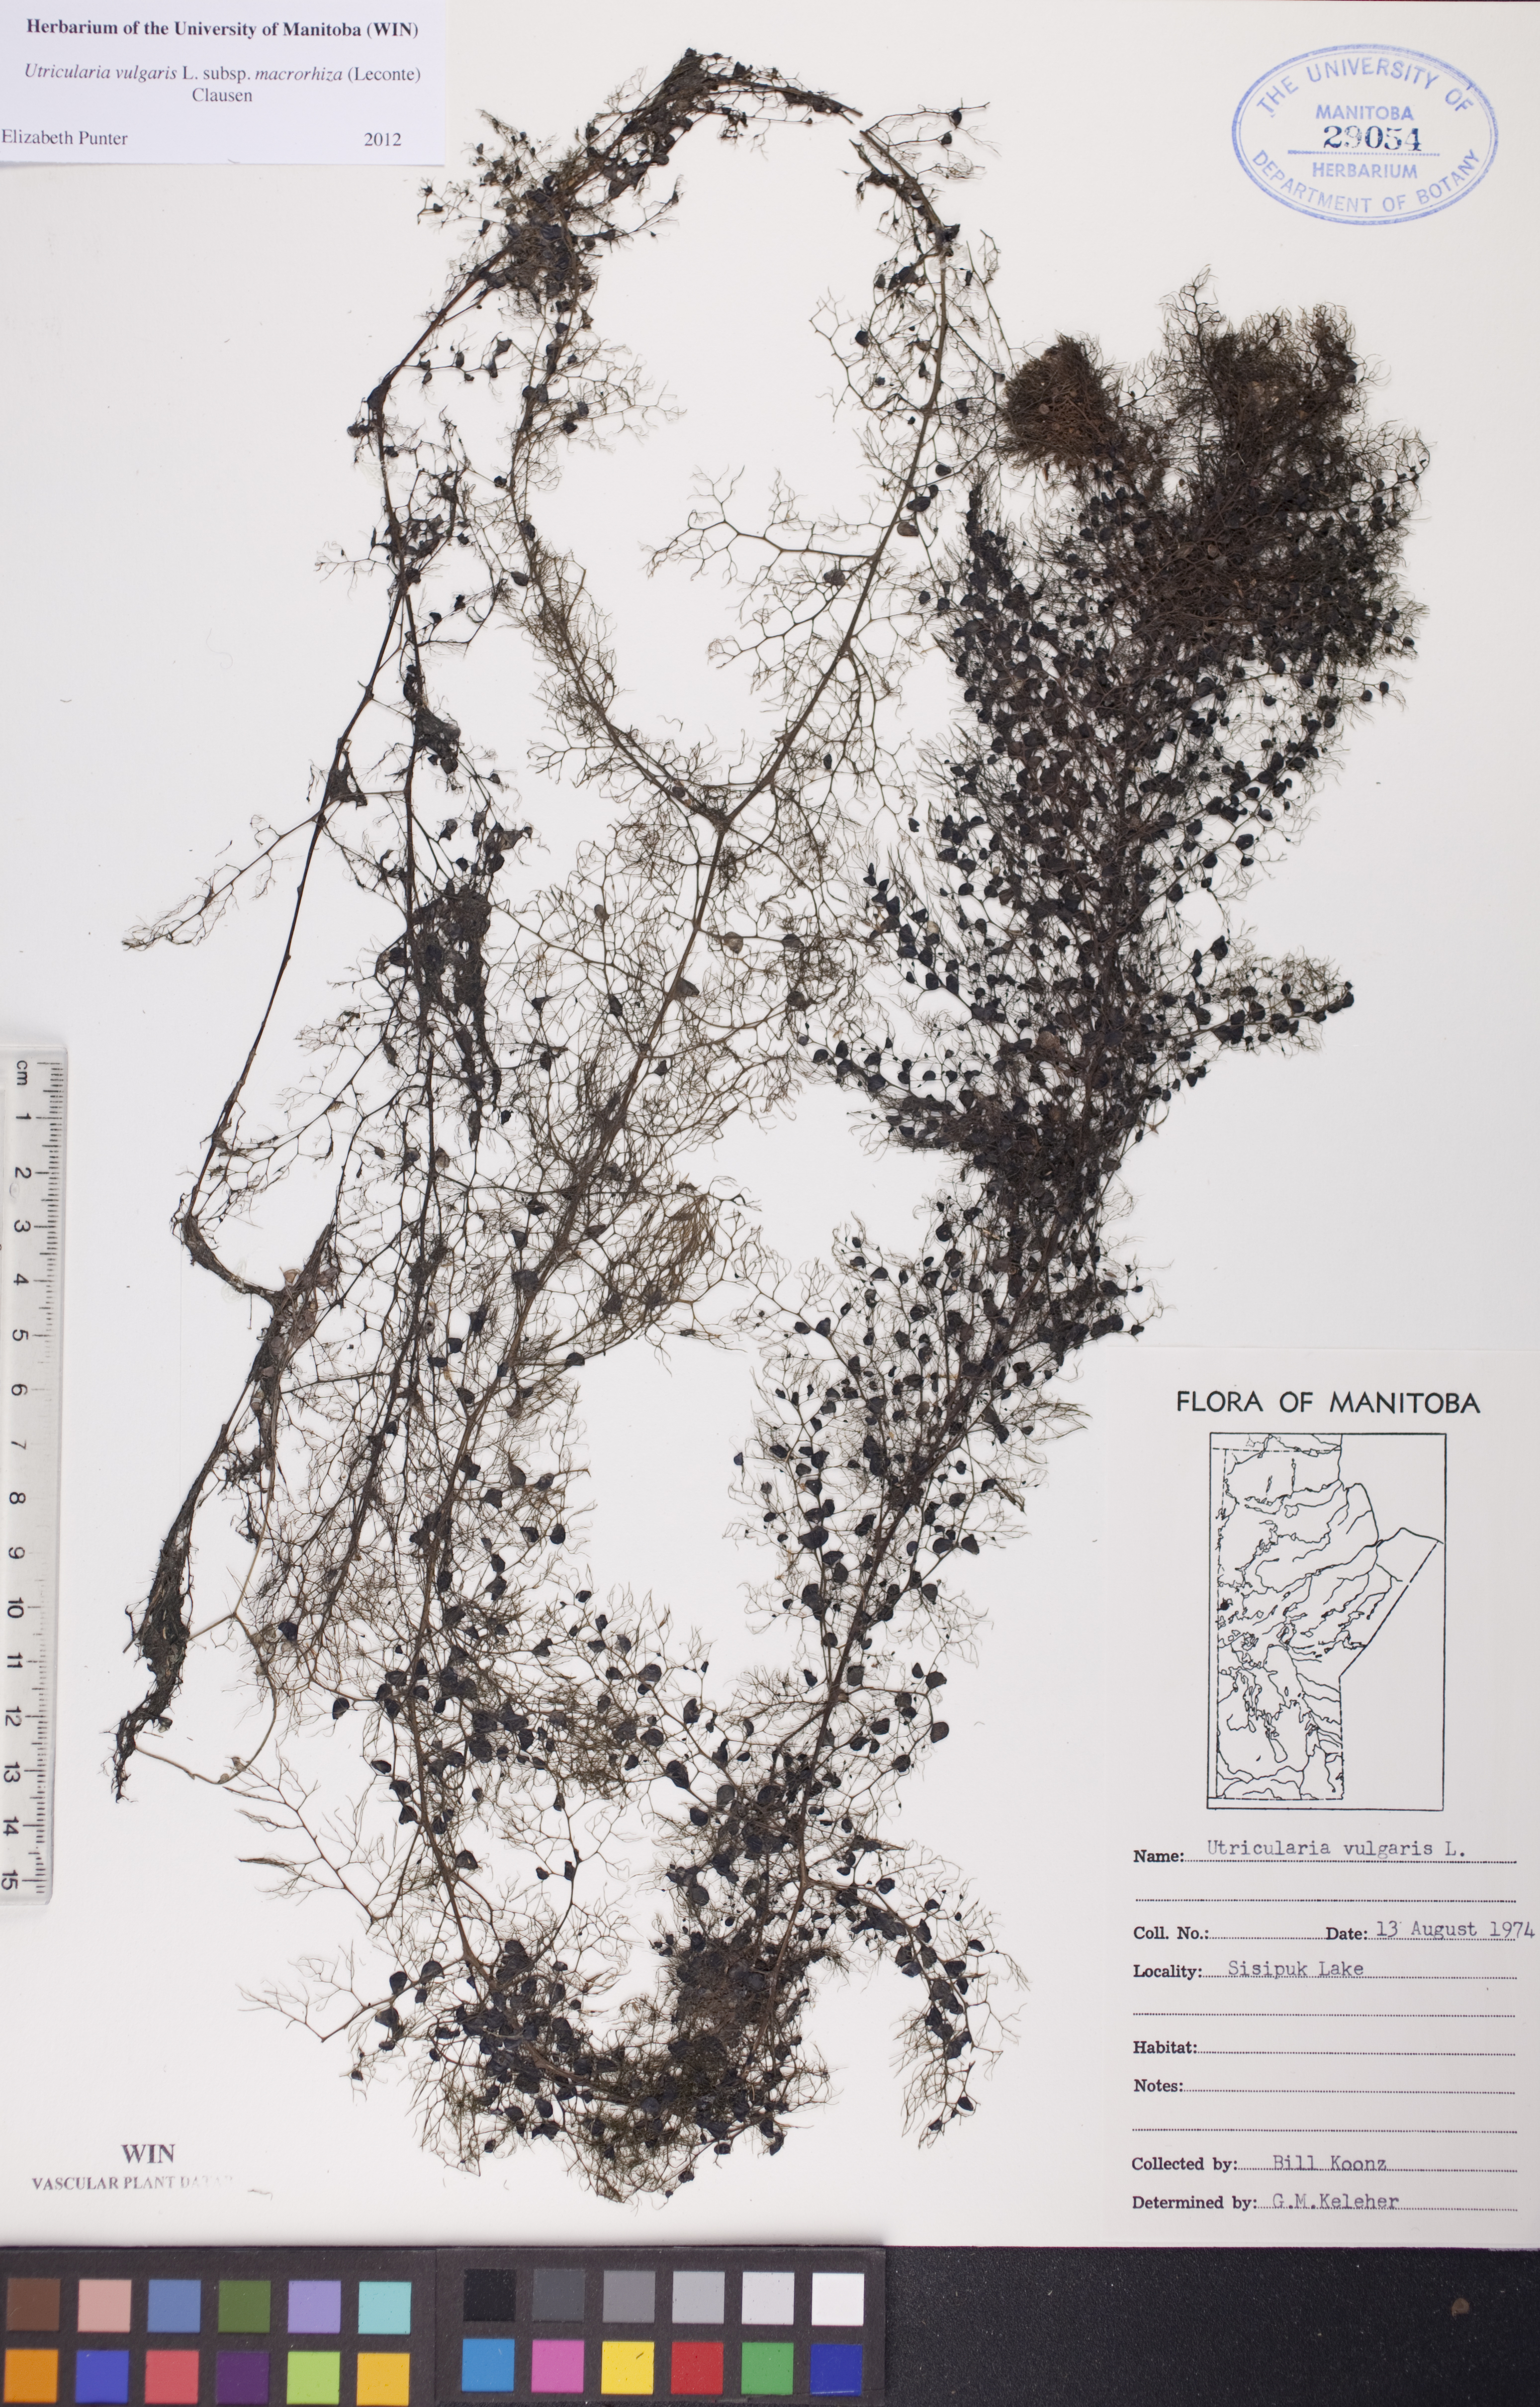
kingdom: Plantae
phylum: Tracheophyta
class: Magnoliopsida
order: Lamiales
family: Lentibulariaceae
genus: Utricularia
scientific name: Utricularia macrorhiza
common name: Common bladderwort
